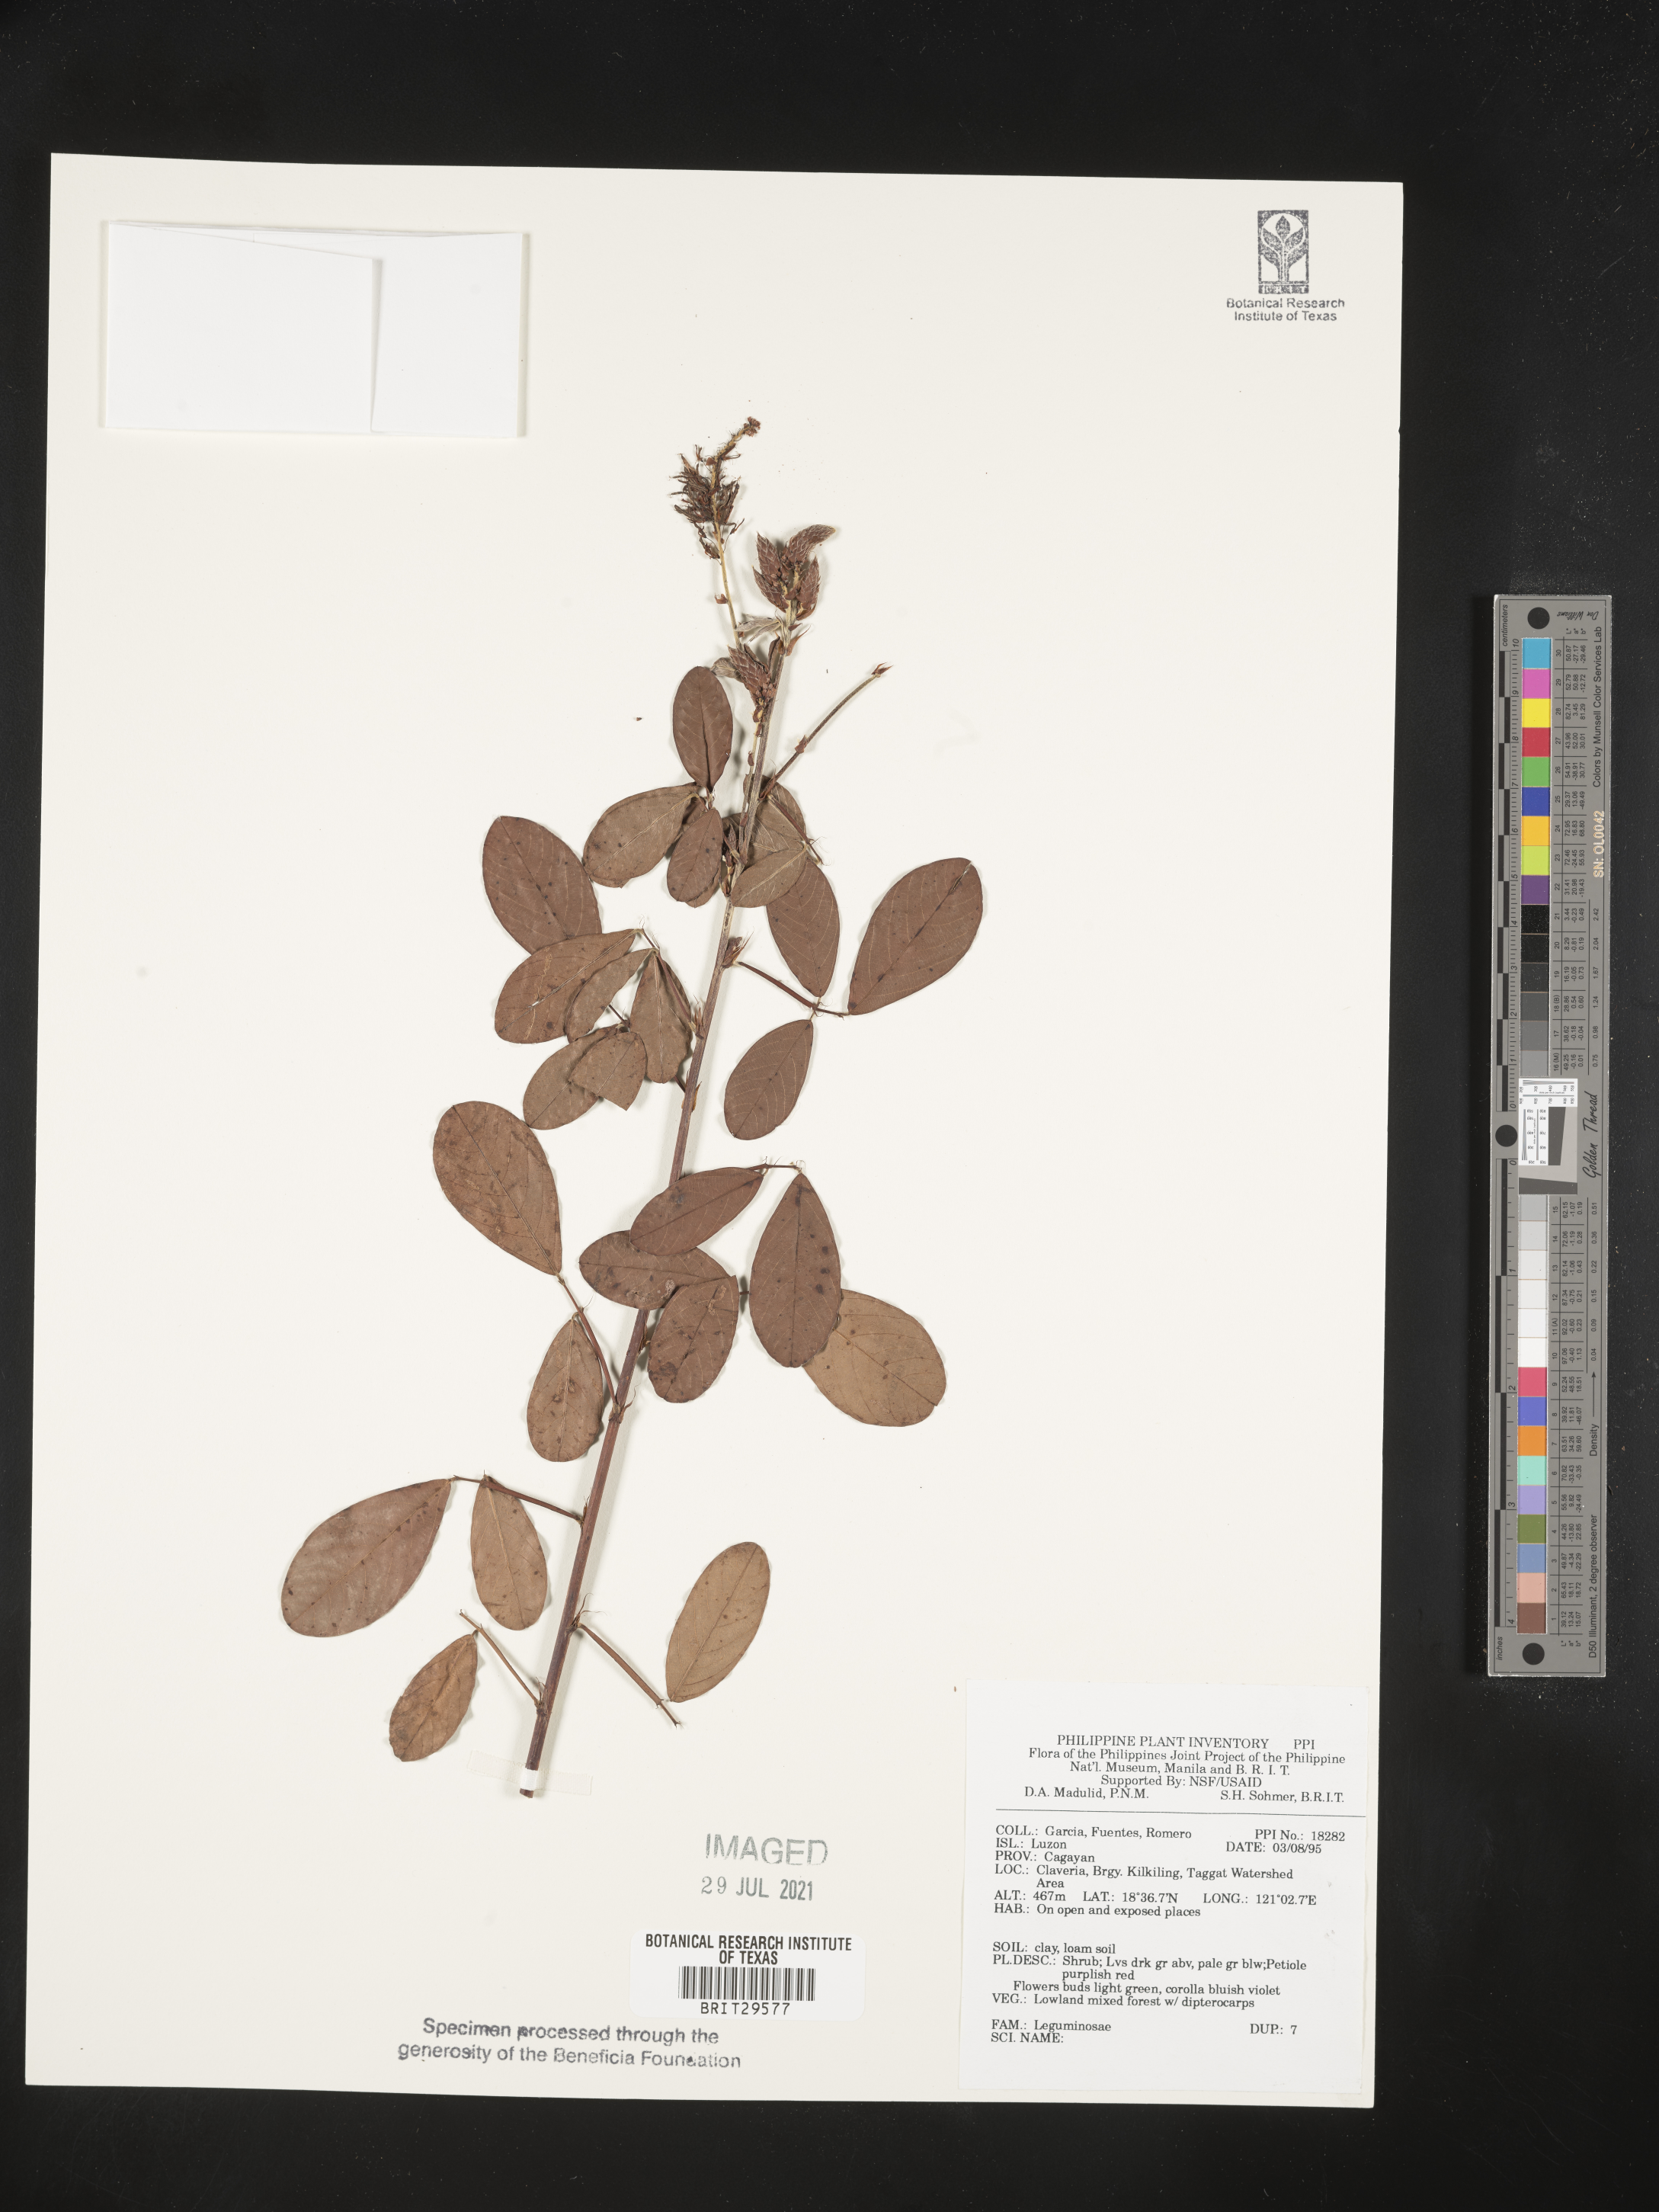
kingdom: Plantae
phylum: Tracheophyta
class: Magnoliopsida
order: Fabales
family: Fabaceae
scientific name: Fabaceae
